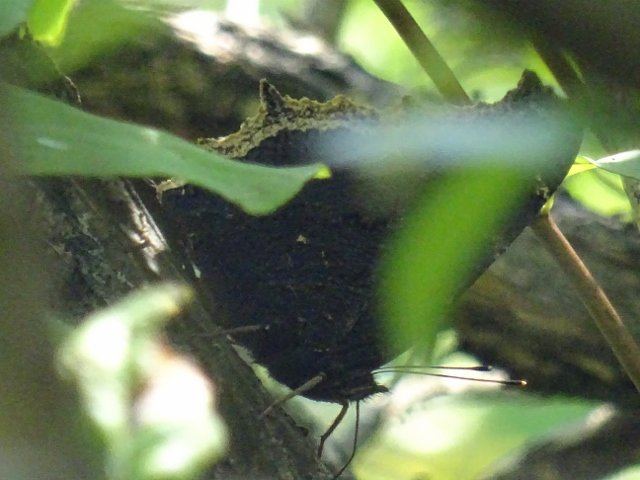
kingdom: Animalia
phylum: Arthropoda
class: Insecta
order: Lepidoptera
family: Nymphalidae
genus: Nymphalis
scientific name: Nymphalis antiopa
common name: Mourning Cloak
